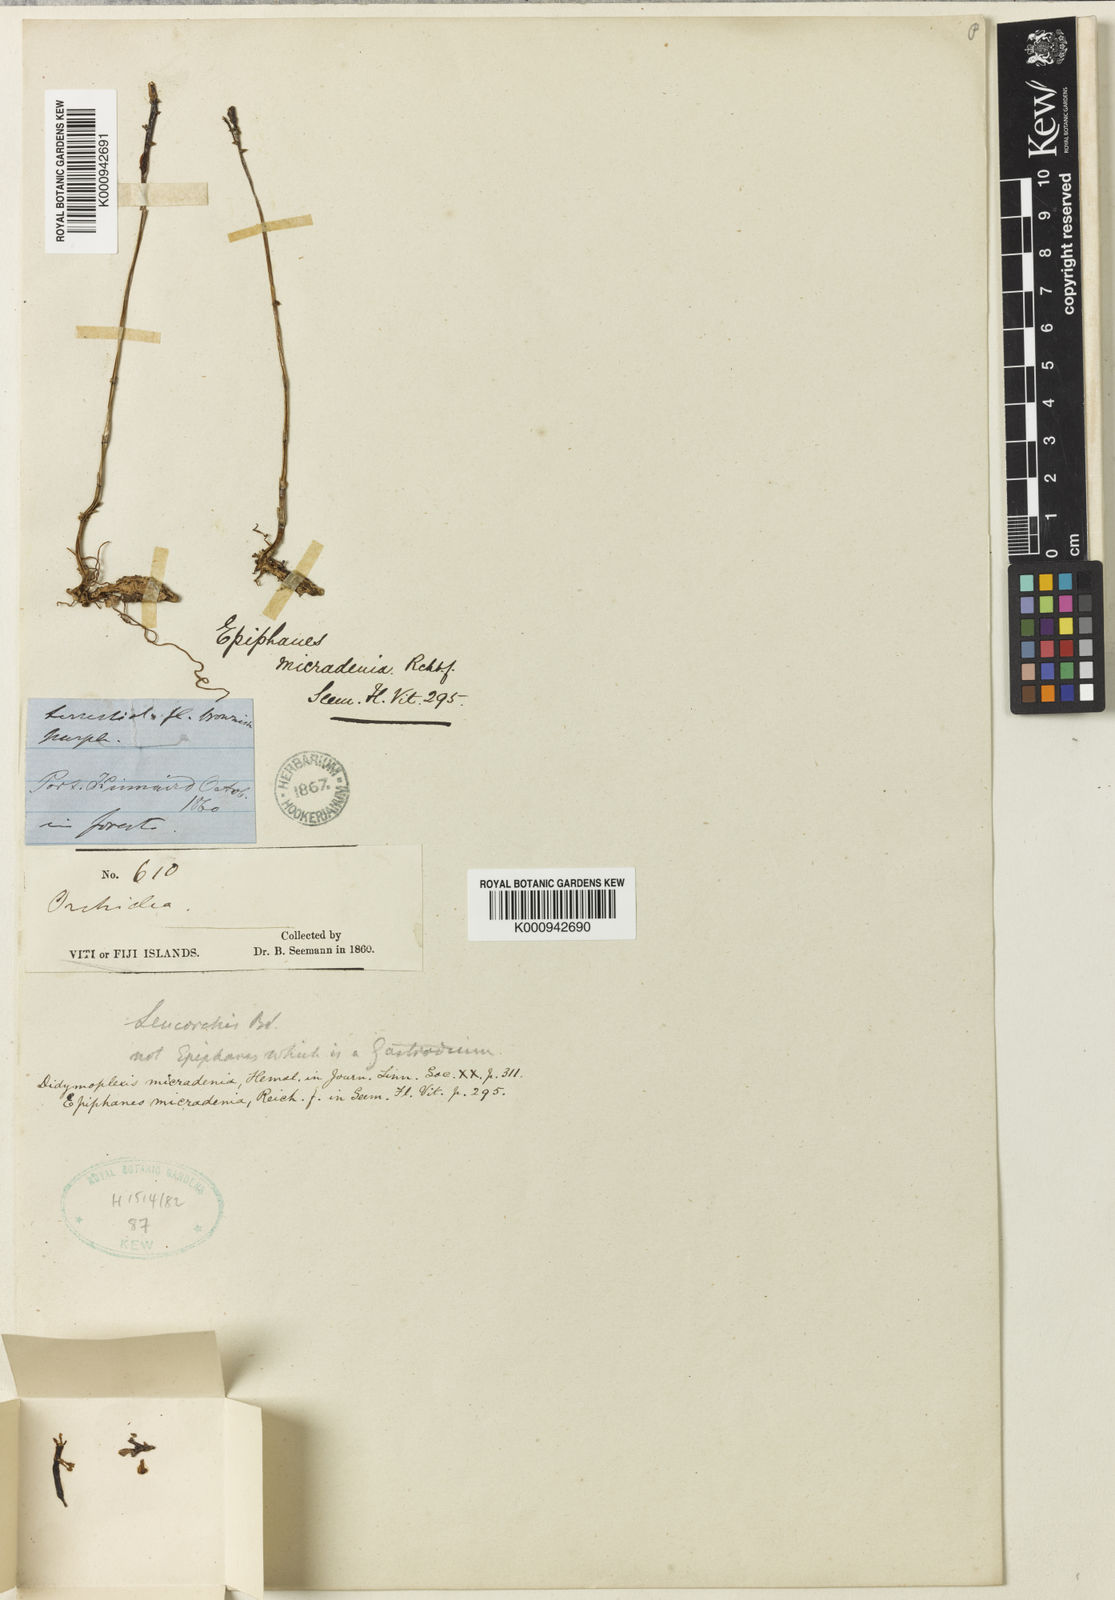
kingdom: Plantae
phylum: Tracheophyta
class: Liliopsida
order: Asparagales
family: Orchidaceae
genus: Didymoplexis
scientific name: Didymoplexis micradenia
